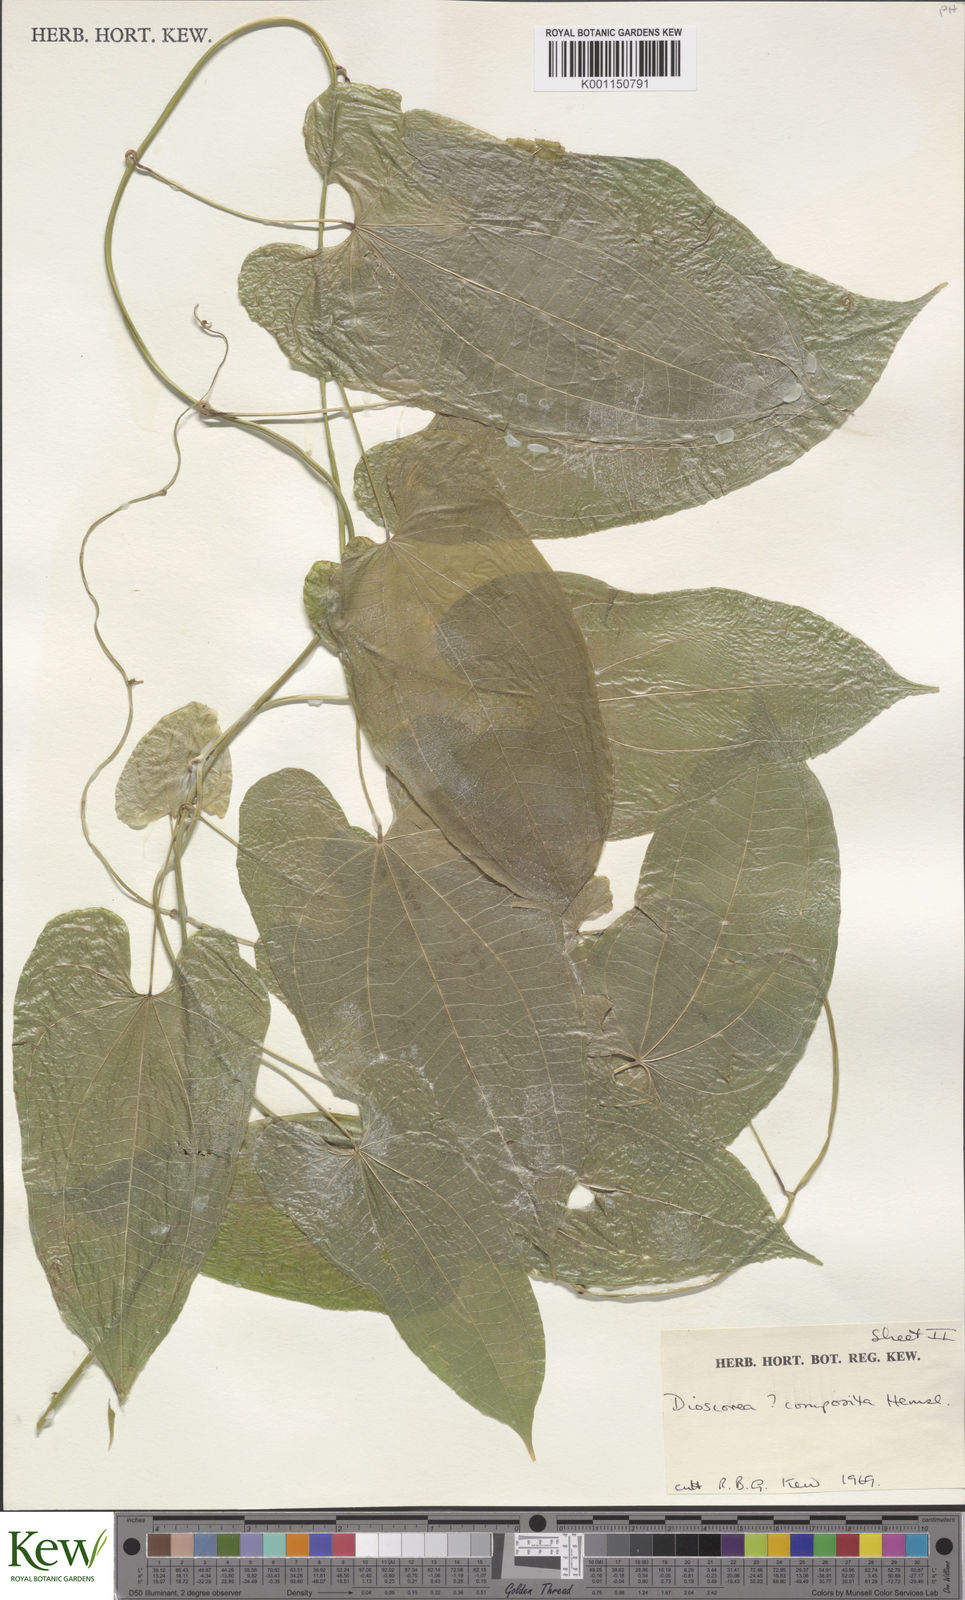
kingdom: Plantae
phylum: Tracheophyta
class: Liliopsida
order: Dioscoreales
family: Dioscoreaceae
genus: Dioscorea
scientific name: Dioscorea composita
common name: Barbasco
